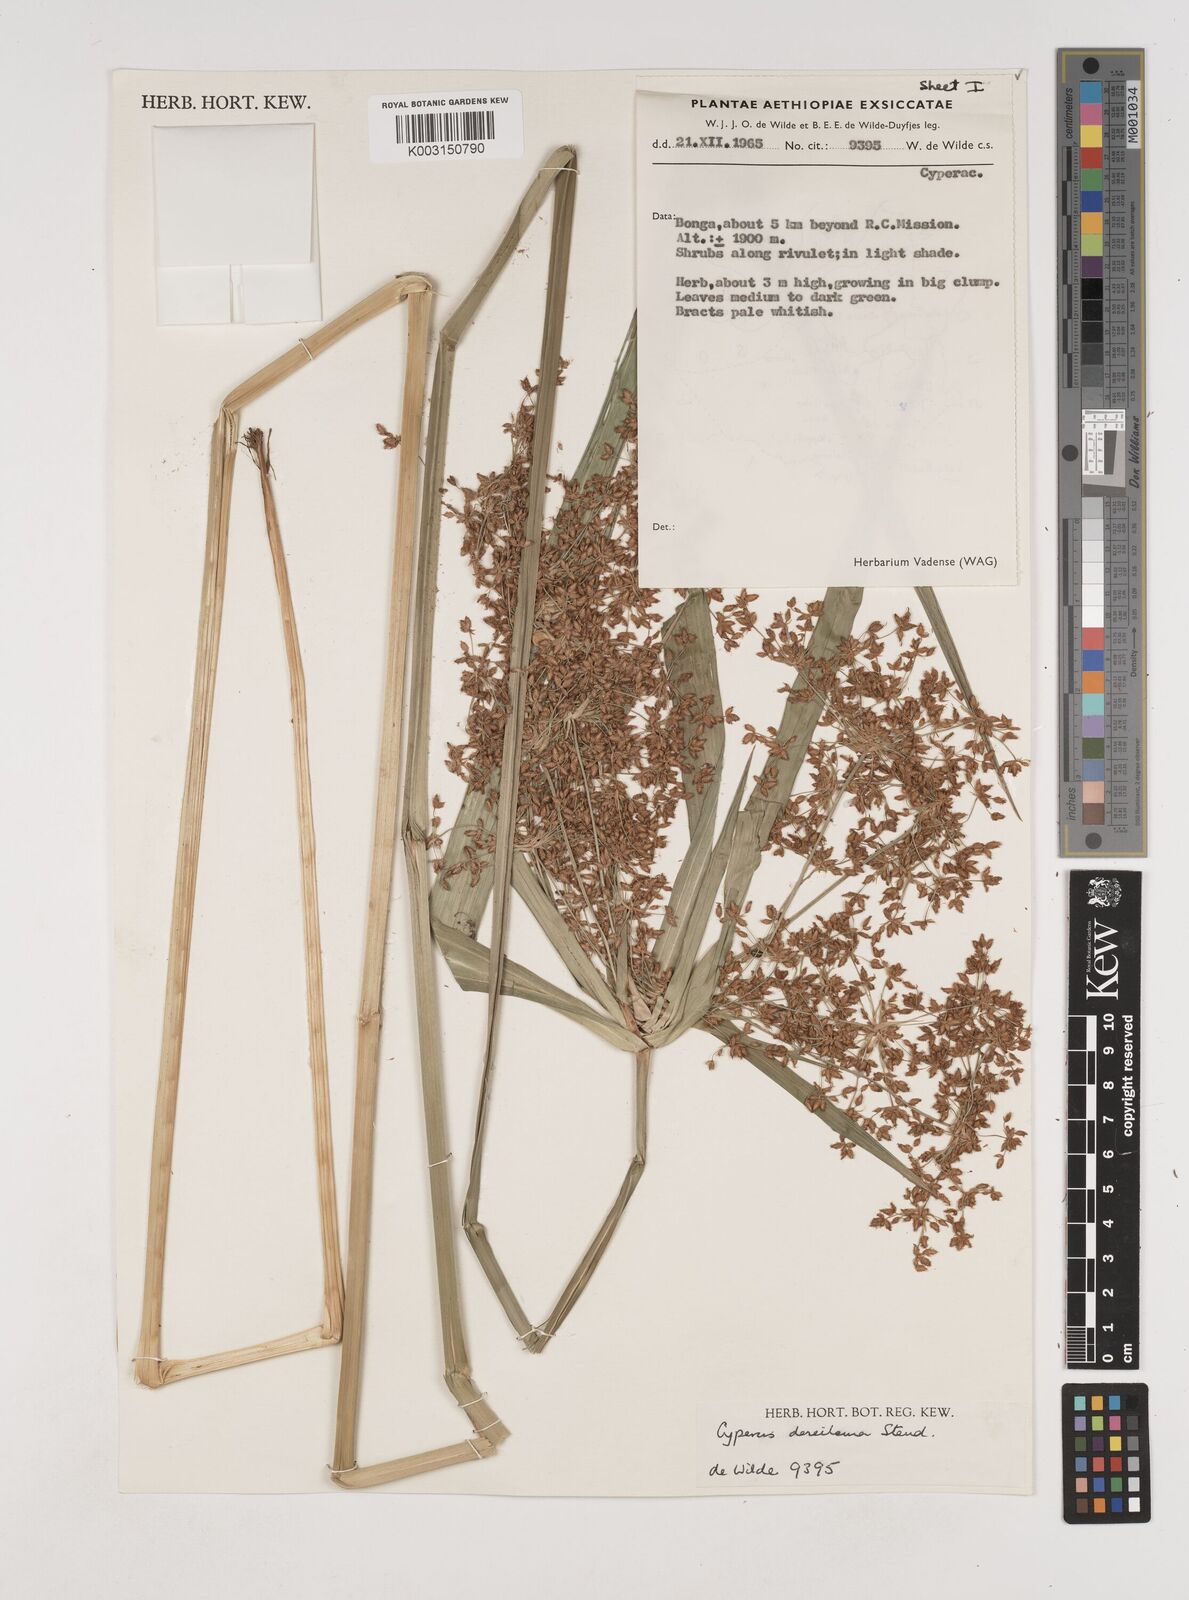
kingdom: Plantae
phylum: Tracheophyta
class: Liliopsida
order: Poales
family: Cyperaceae
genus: Cyperus
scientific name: Cyperus derreilema
